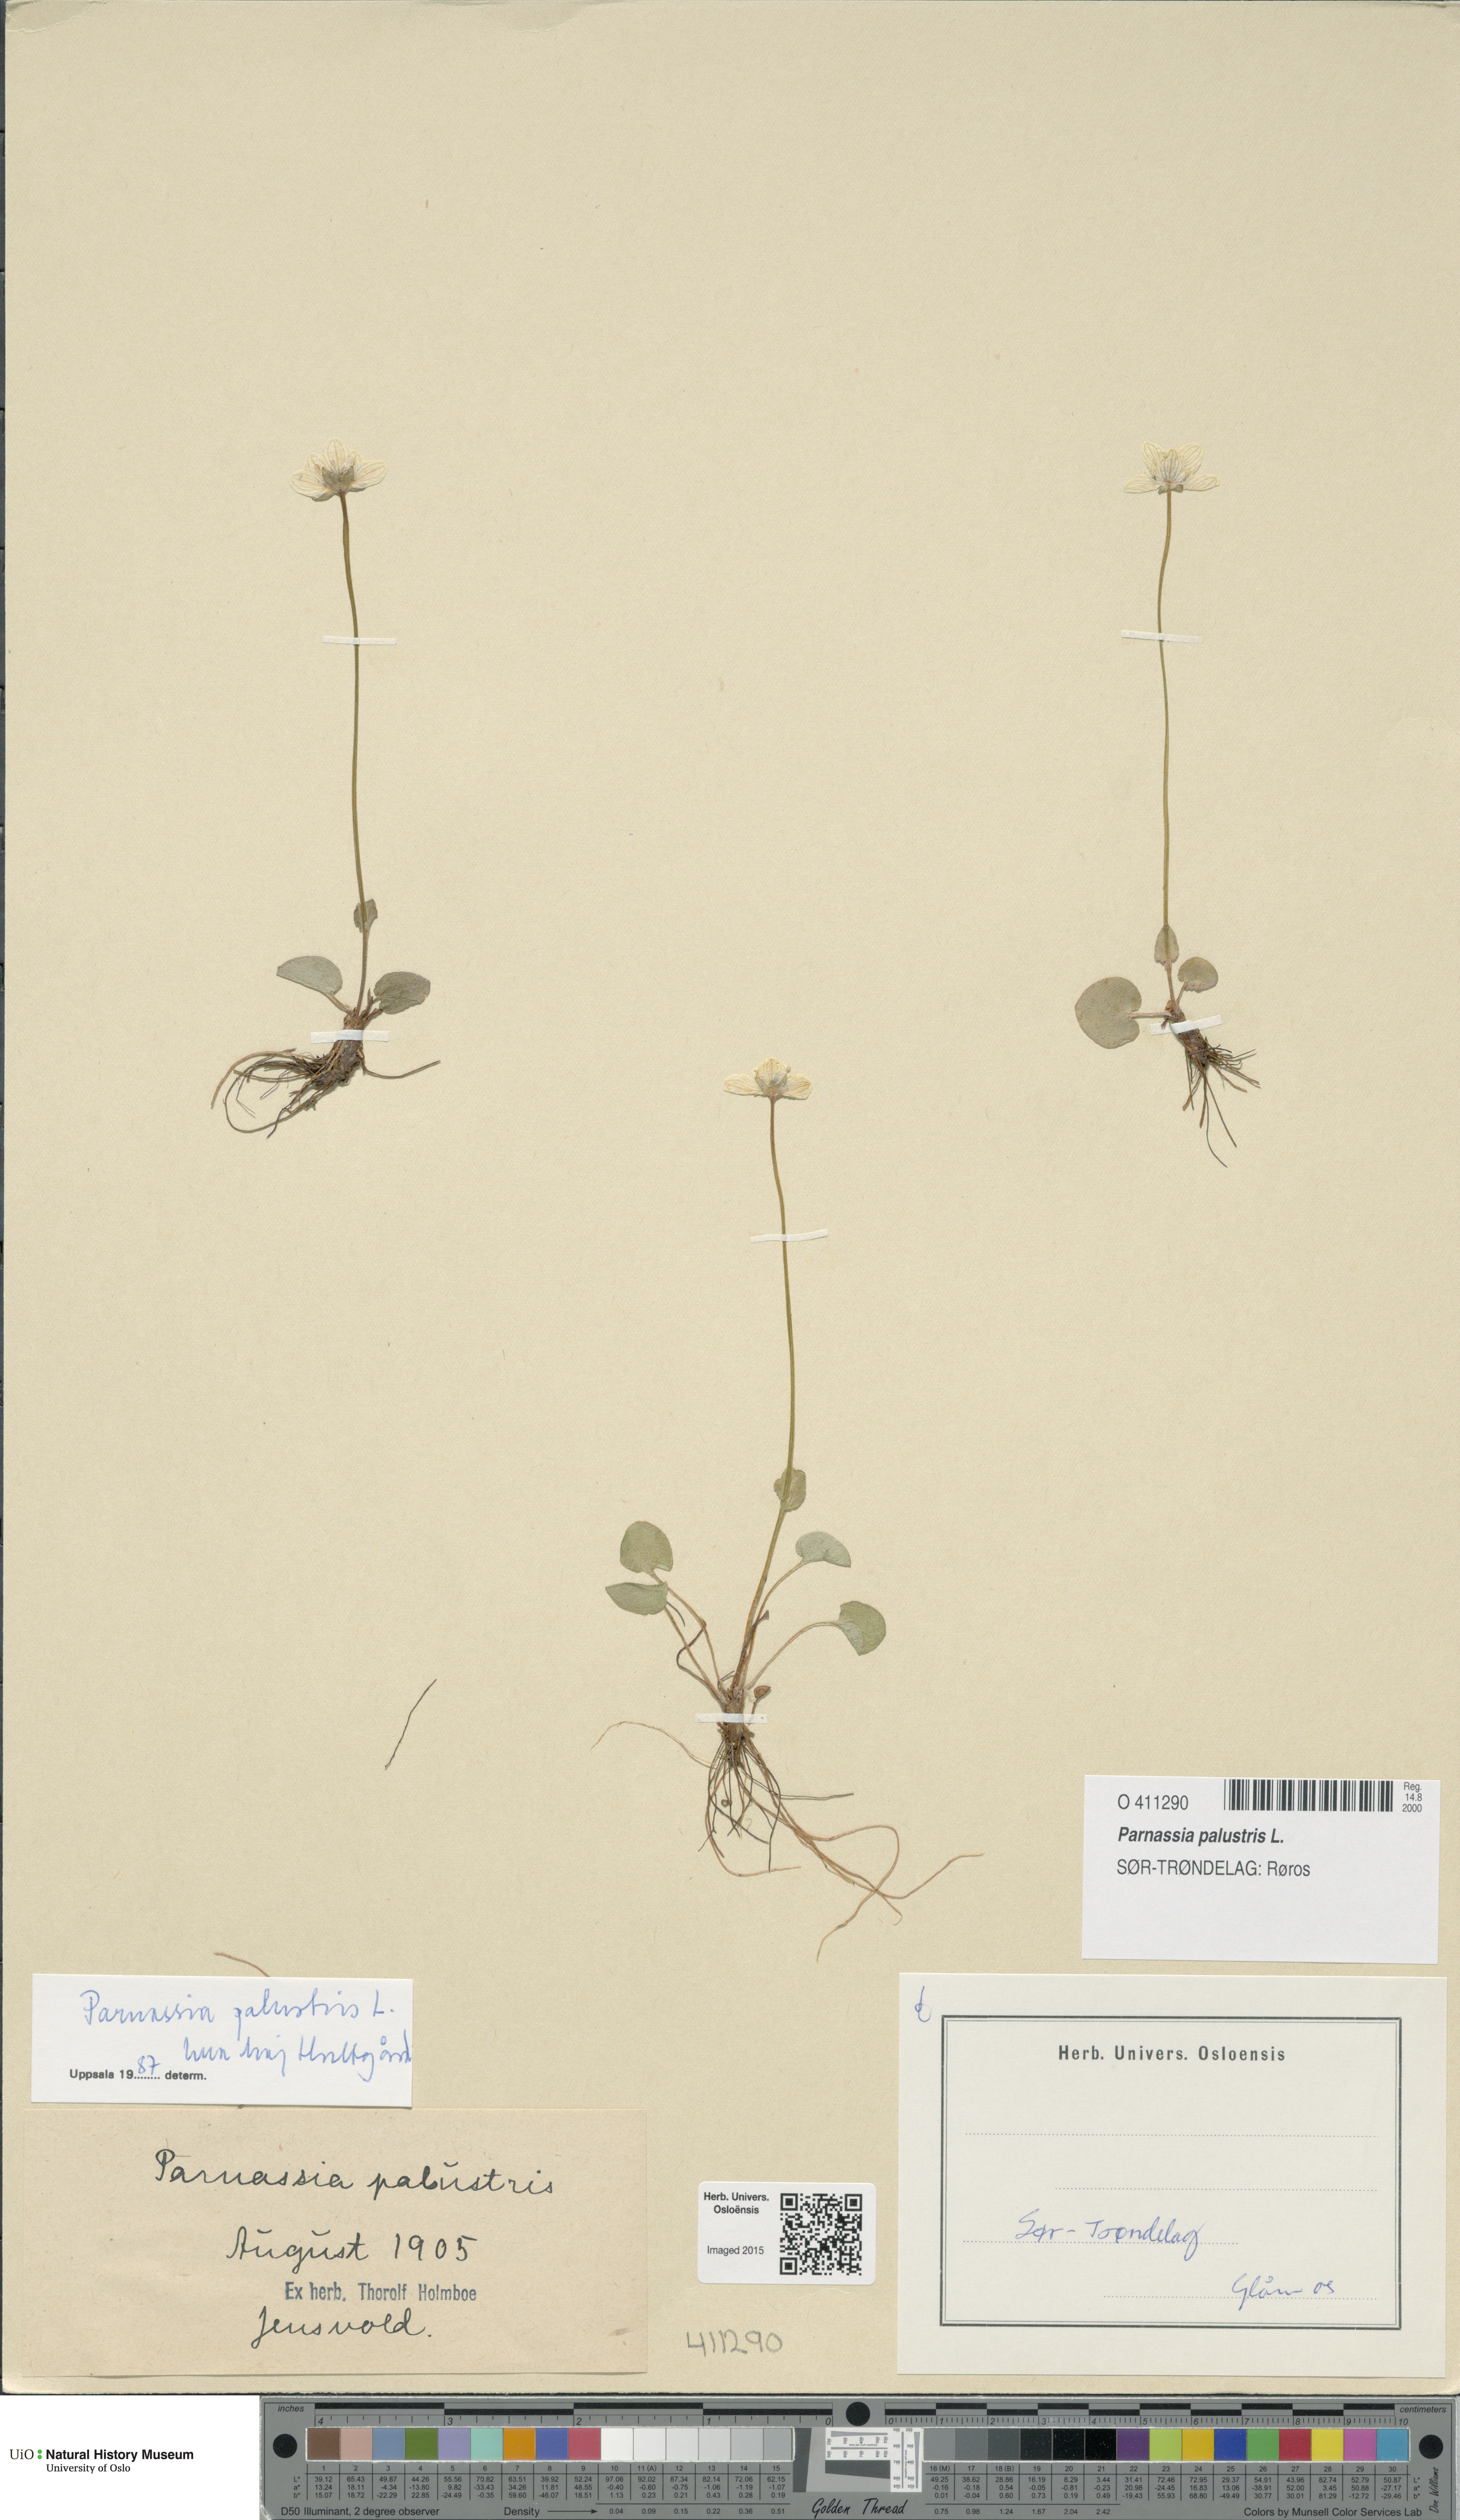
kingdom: Plantae
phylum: Tracheophyta
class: Magnoliopsida
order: Celastrales
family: Parnassiaceae
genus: Parnassia
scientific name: Parnassia palustris
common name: Grass-of-parnassus
